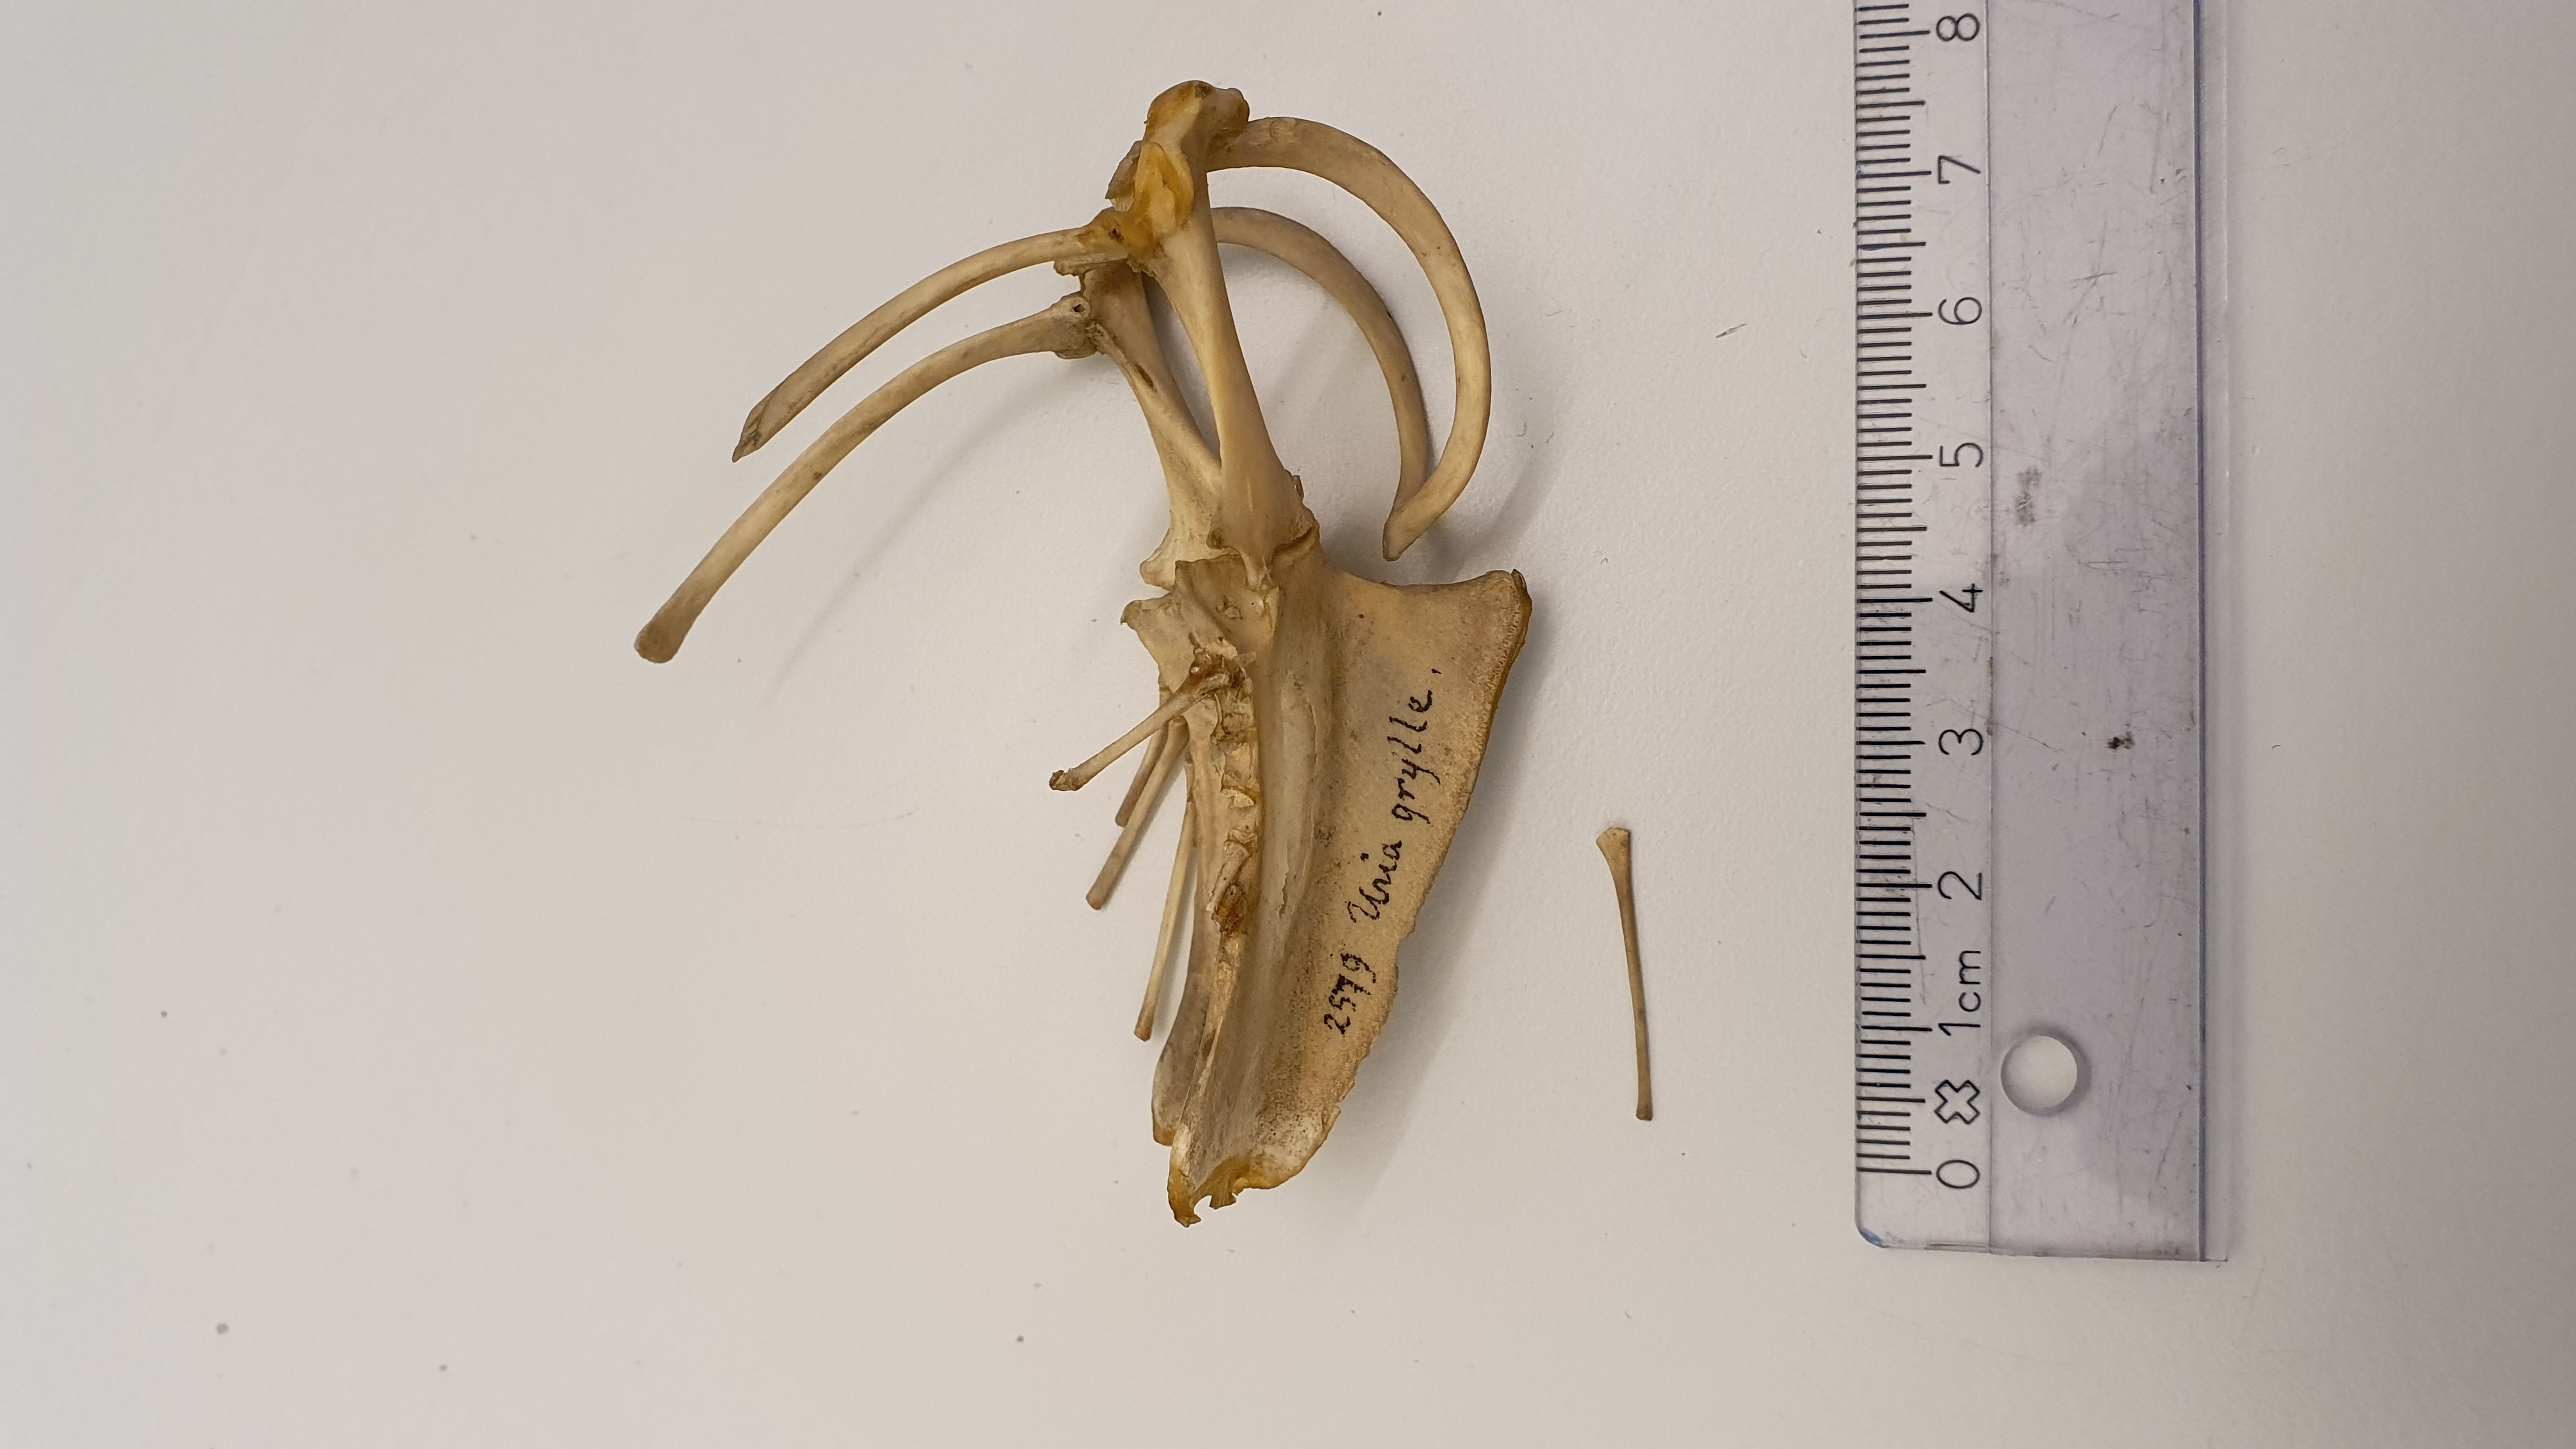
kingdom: Animalia
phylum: Chordata
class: Aves
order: Charadriiformes
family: Alcidae
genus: Cepphus
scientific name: Cepphus grylle
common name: Black guillemot
